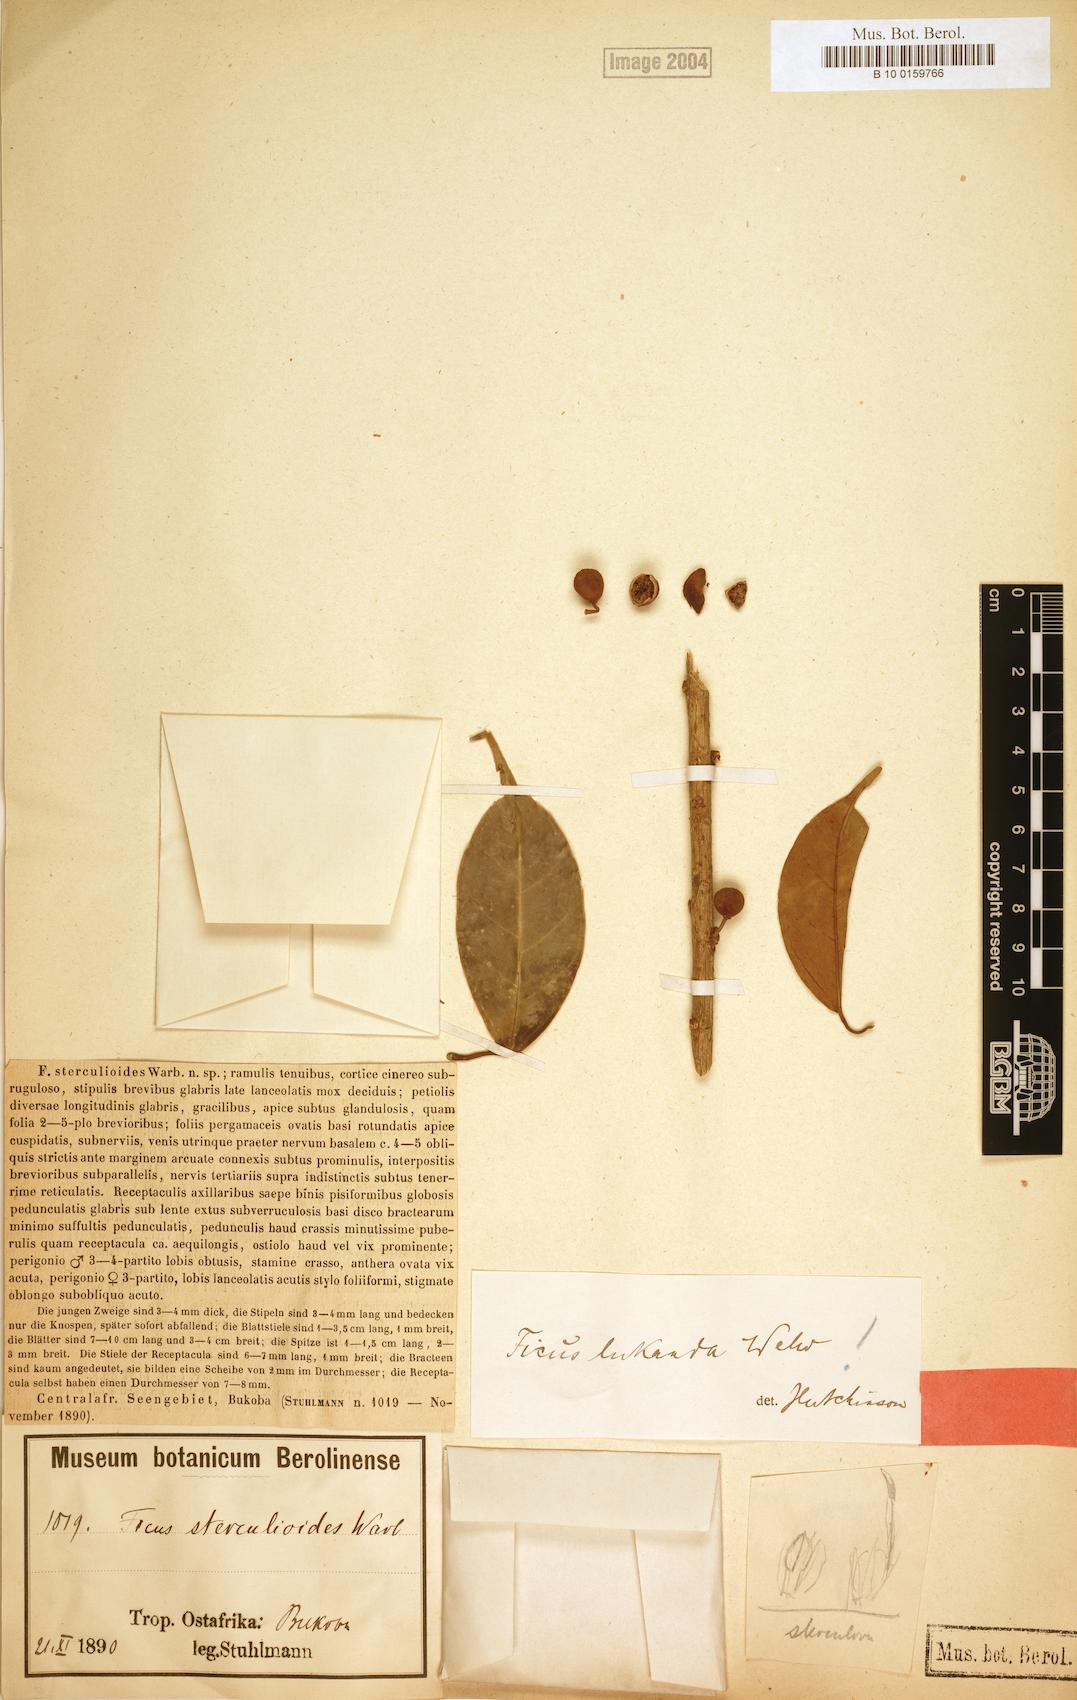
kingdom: Plantae
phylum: Tracheophyta
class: Magnoliopsida
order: Rosales
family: Moraceae
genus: Ficus
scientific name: Ficus ottoniifolia
